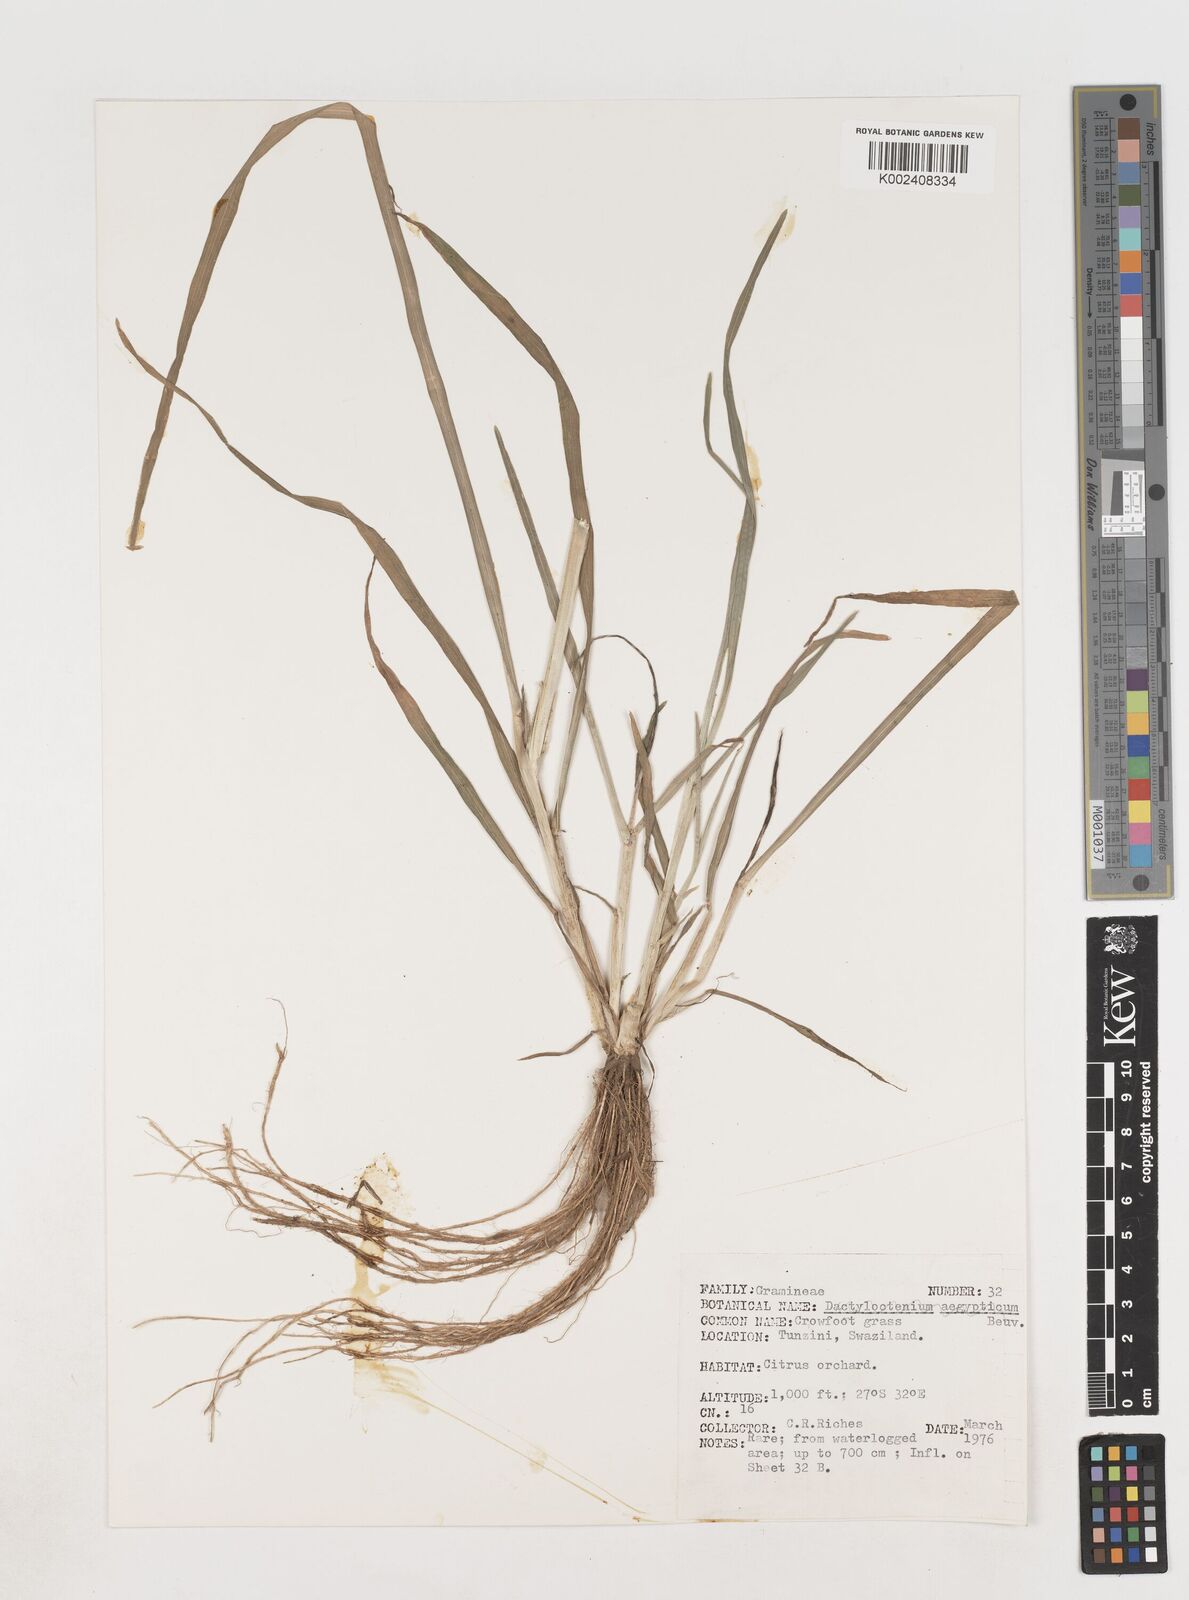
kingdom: Plantae
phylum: Tracheophyta
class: Liliopsida
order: Poales
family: Poaceae
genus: Eleusine
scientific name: Eleusine africana
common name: Wild african finger millet
